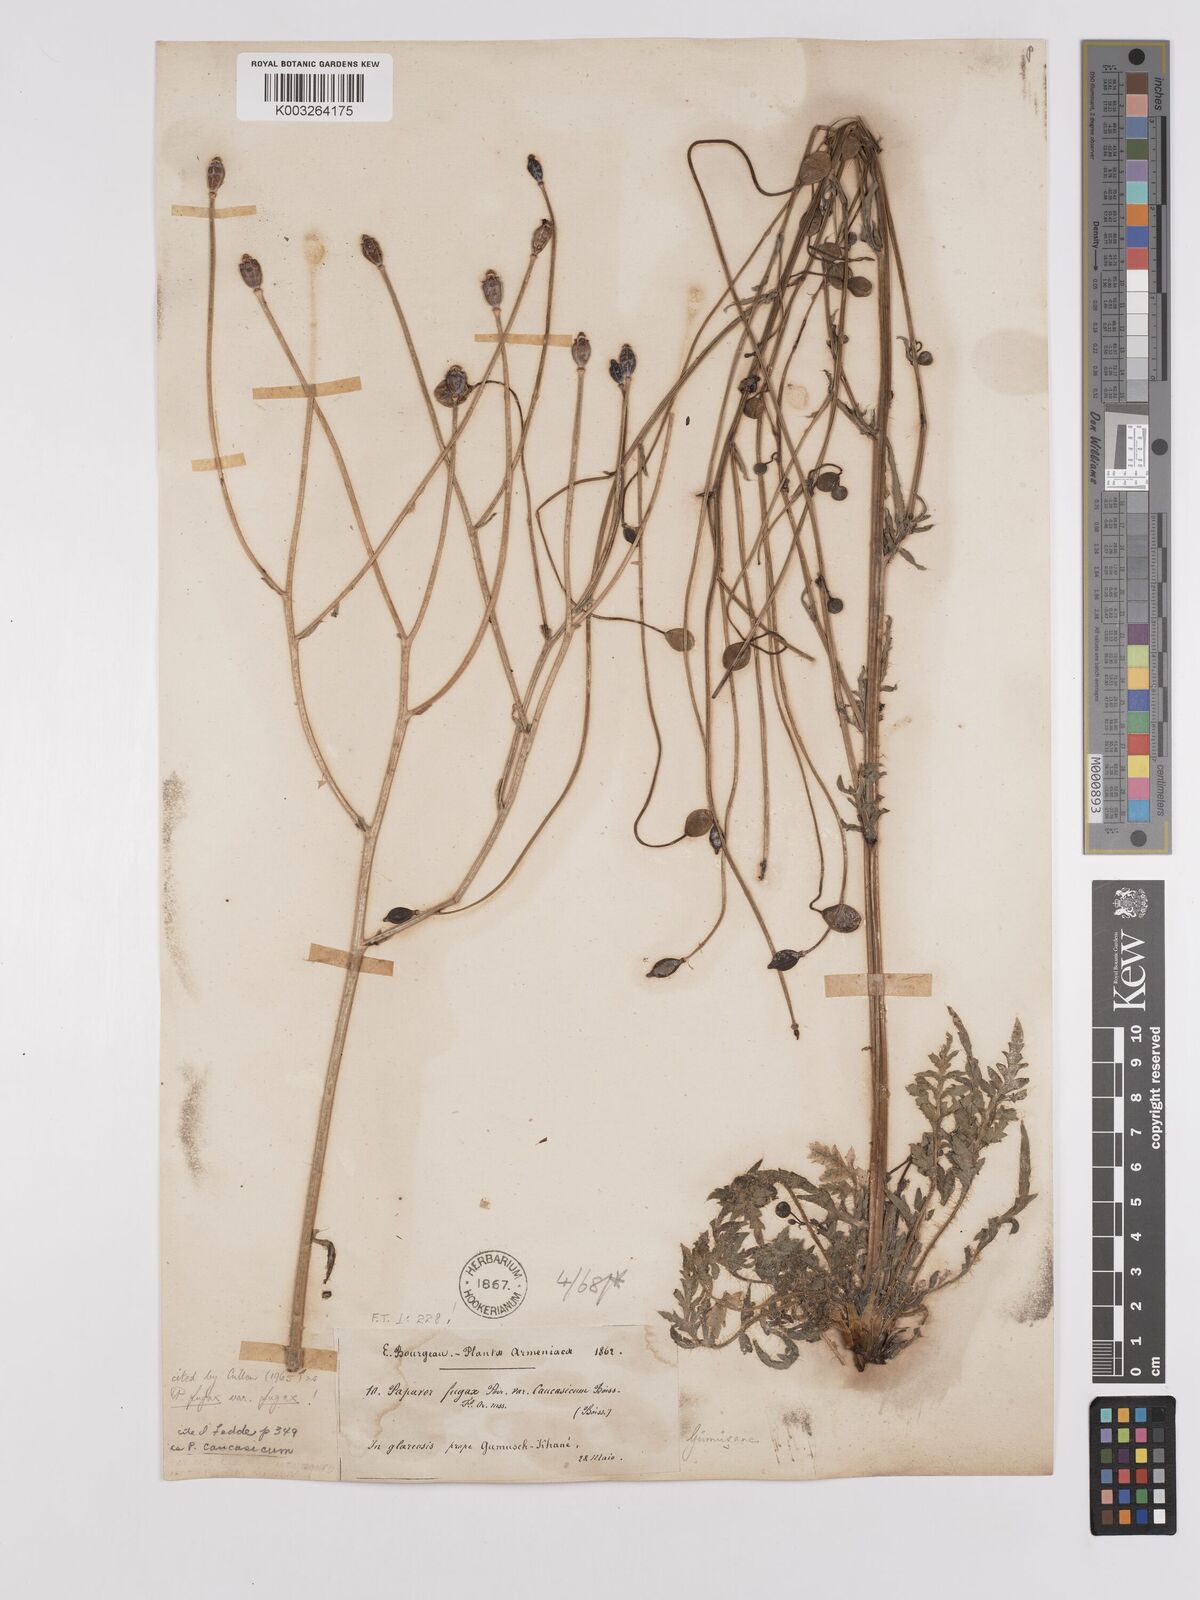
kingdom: Plantae
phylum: Tracheophyta
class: Magnoliopsida
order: Ranunculales
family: Papaveraceae
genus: Papaver
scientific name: Papaver armeniacum
